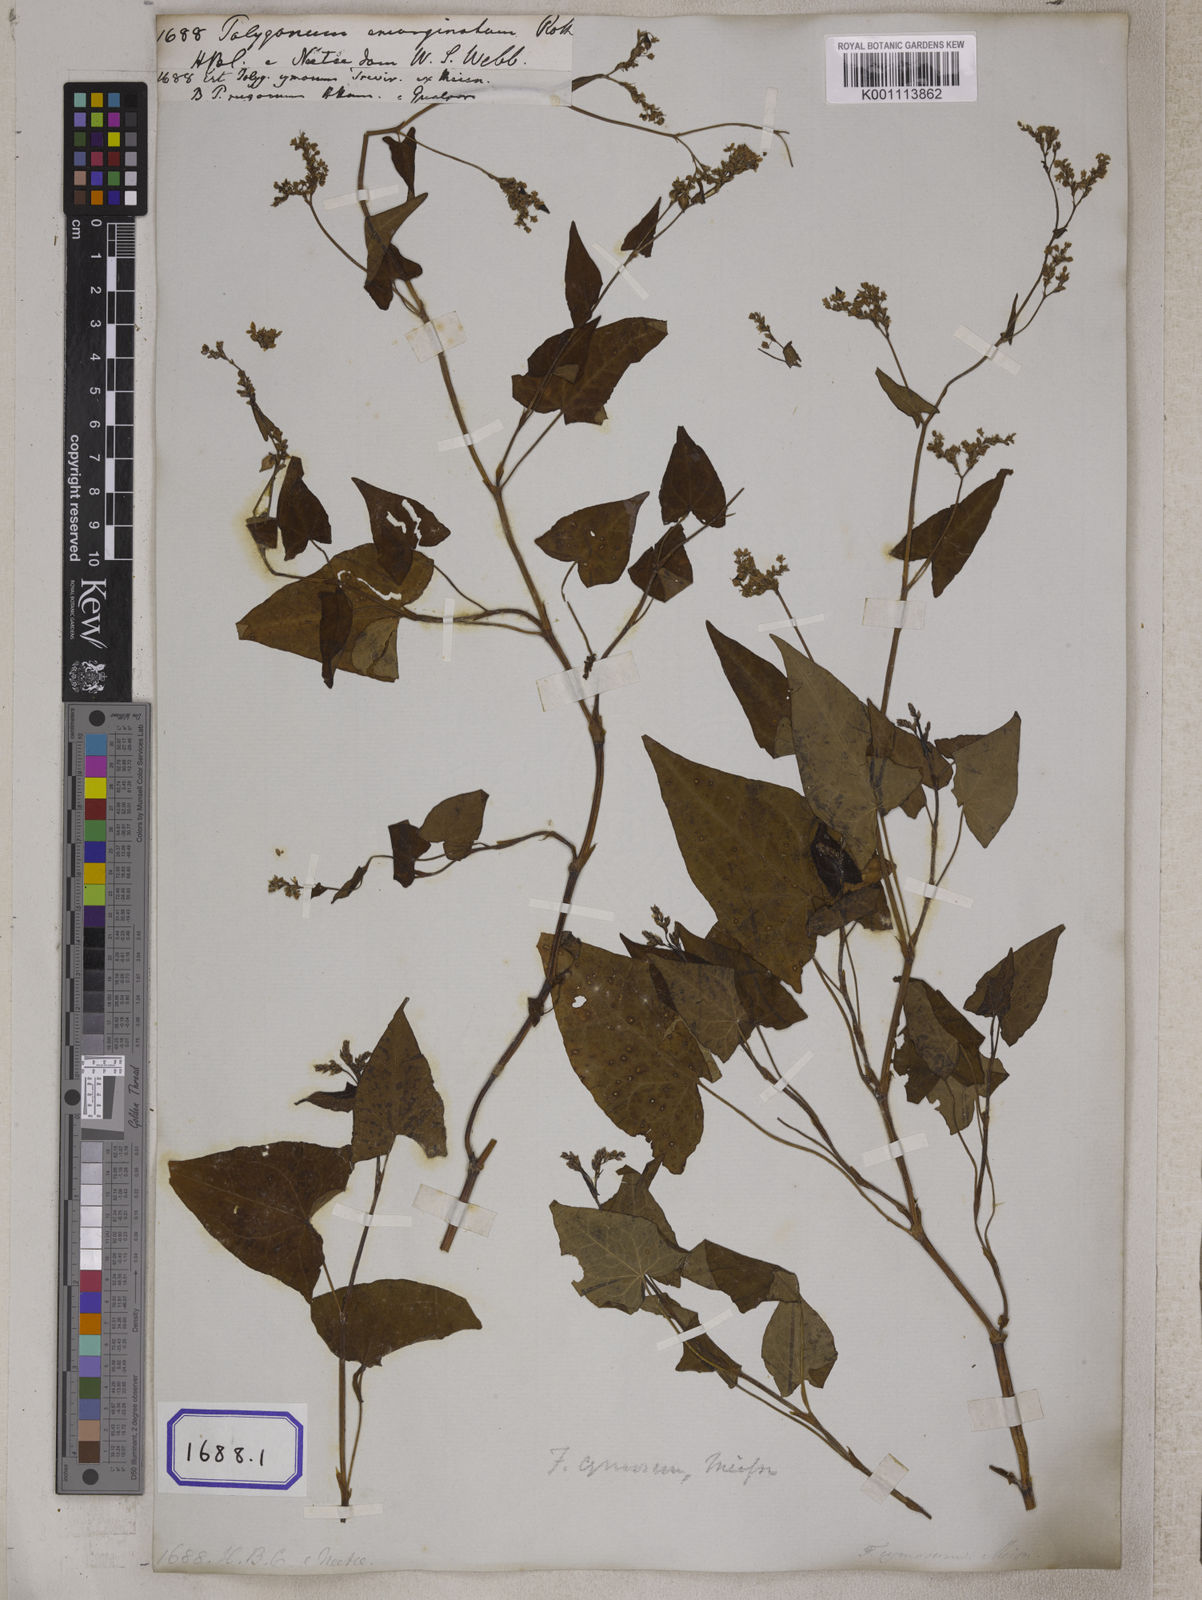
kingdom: Plantae
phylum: Tracheophyta
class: Magnoliopsida
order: Caryophyllales
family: Polygonaceae
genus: Fagopyrum
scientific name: Fagopyrum esculentum
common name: Buckwheat
